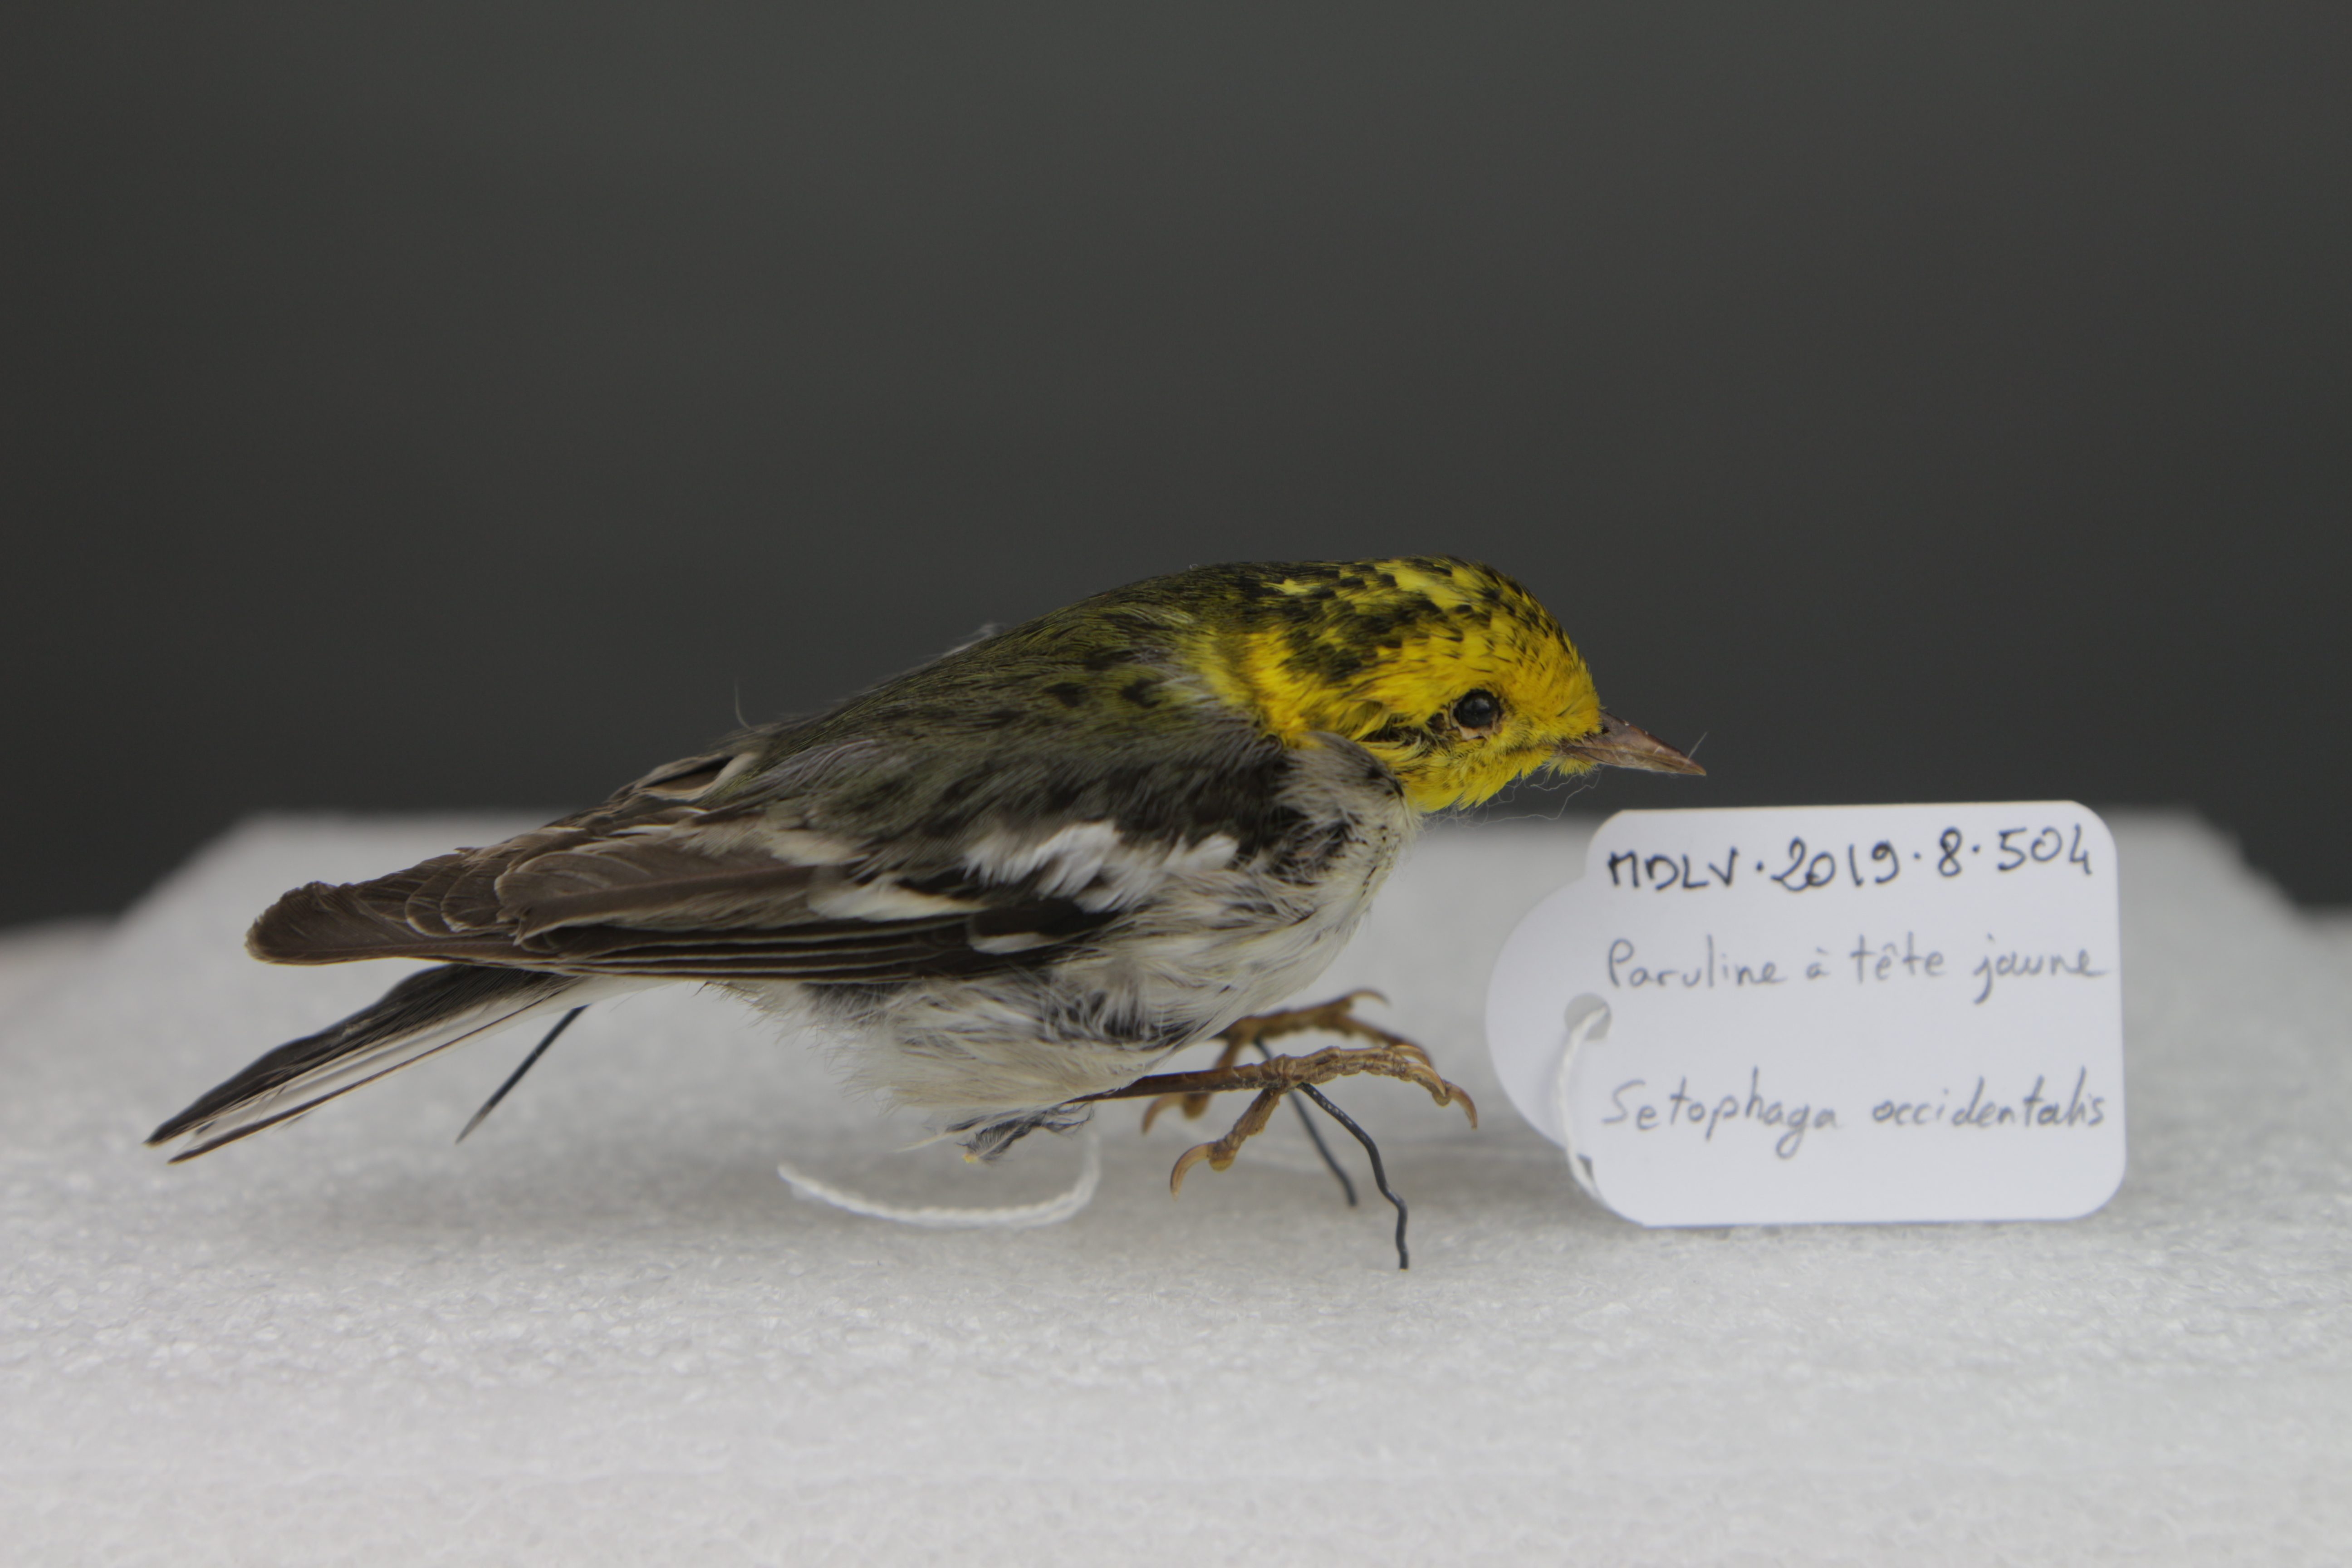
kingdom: Animalia
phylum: Chordata
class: Aves
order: Passeriformes
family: Parulidae
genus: Setophaga
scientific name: Setophaga occidentalis
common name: Hermit warbler
